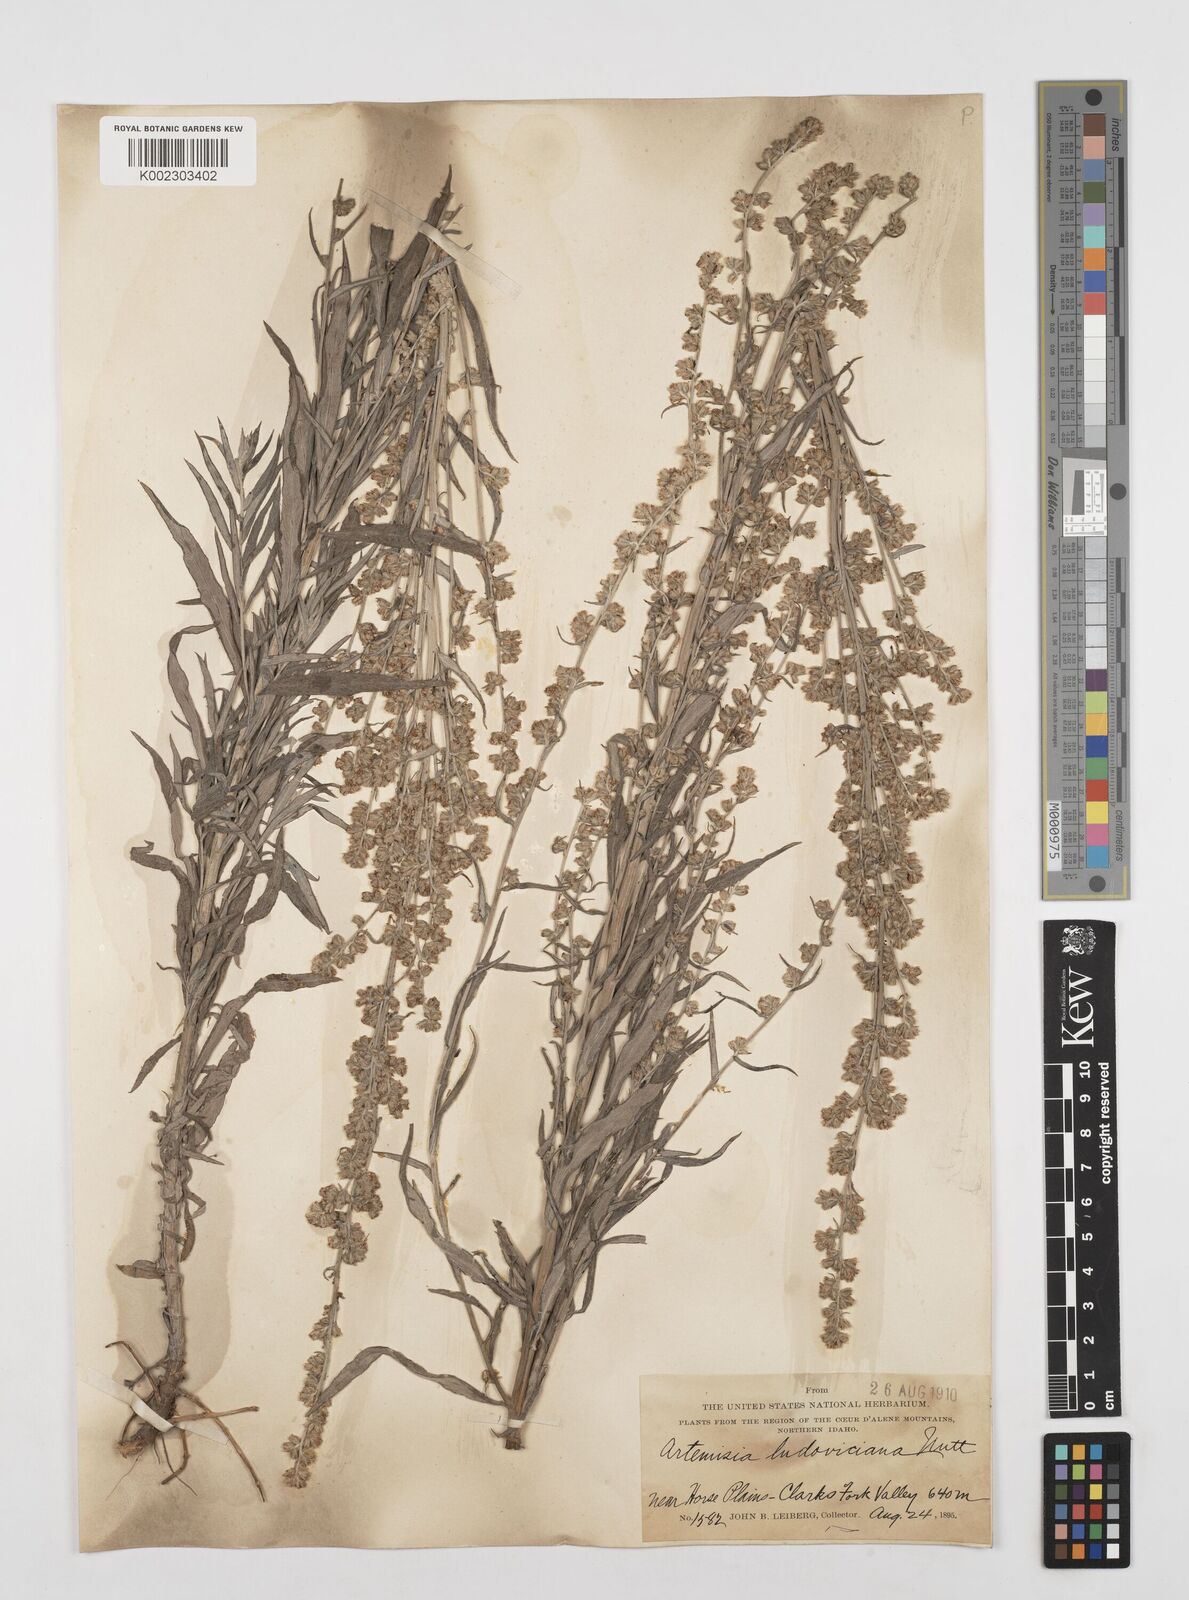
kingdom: Plantae
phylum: Tracheophyta
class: Magnoliopsida
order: Asterales
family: Asteraceae
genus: Artemisia
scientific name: Artemisia
